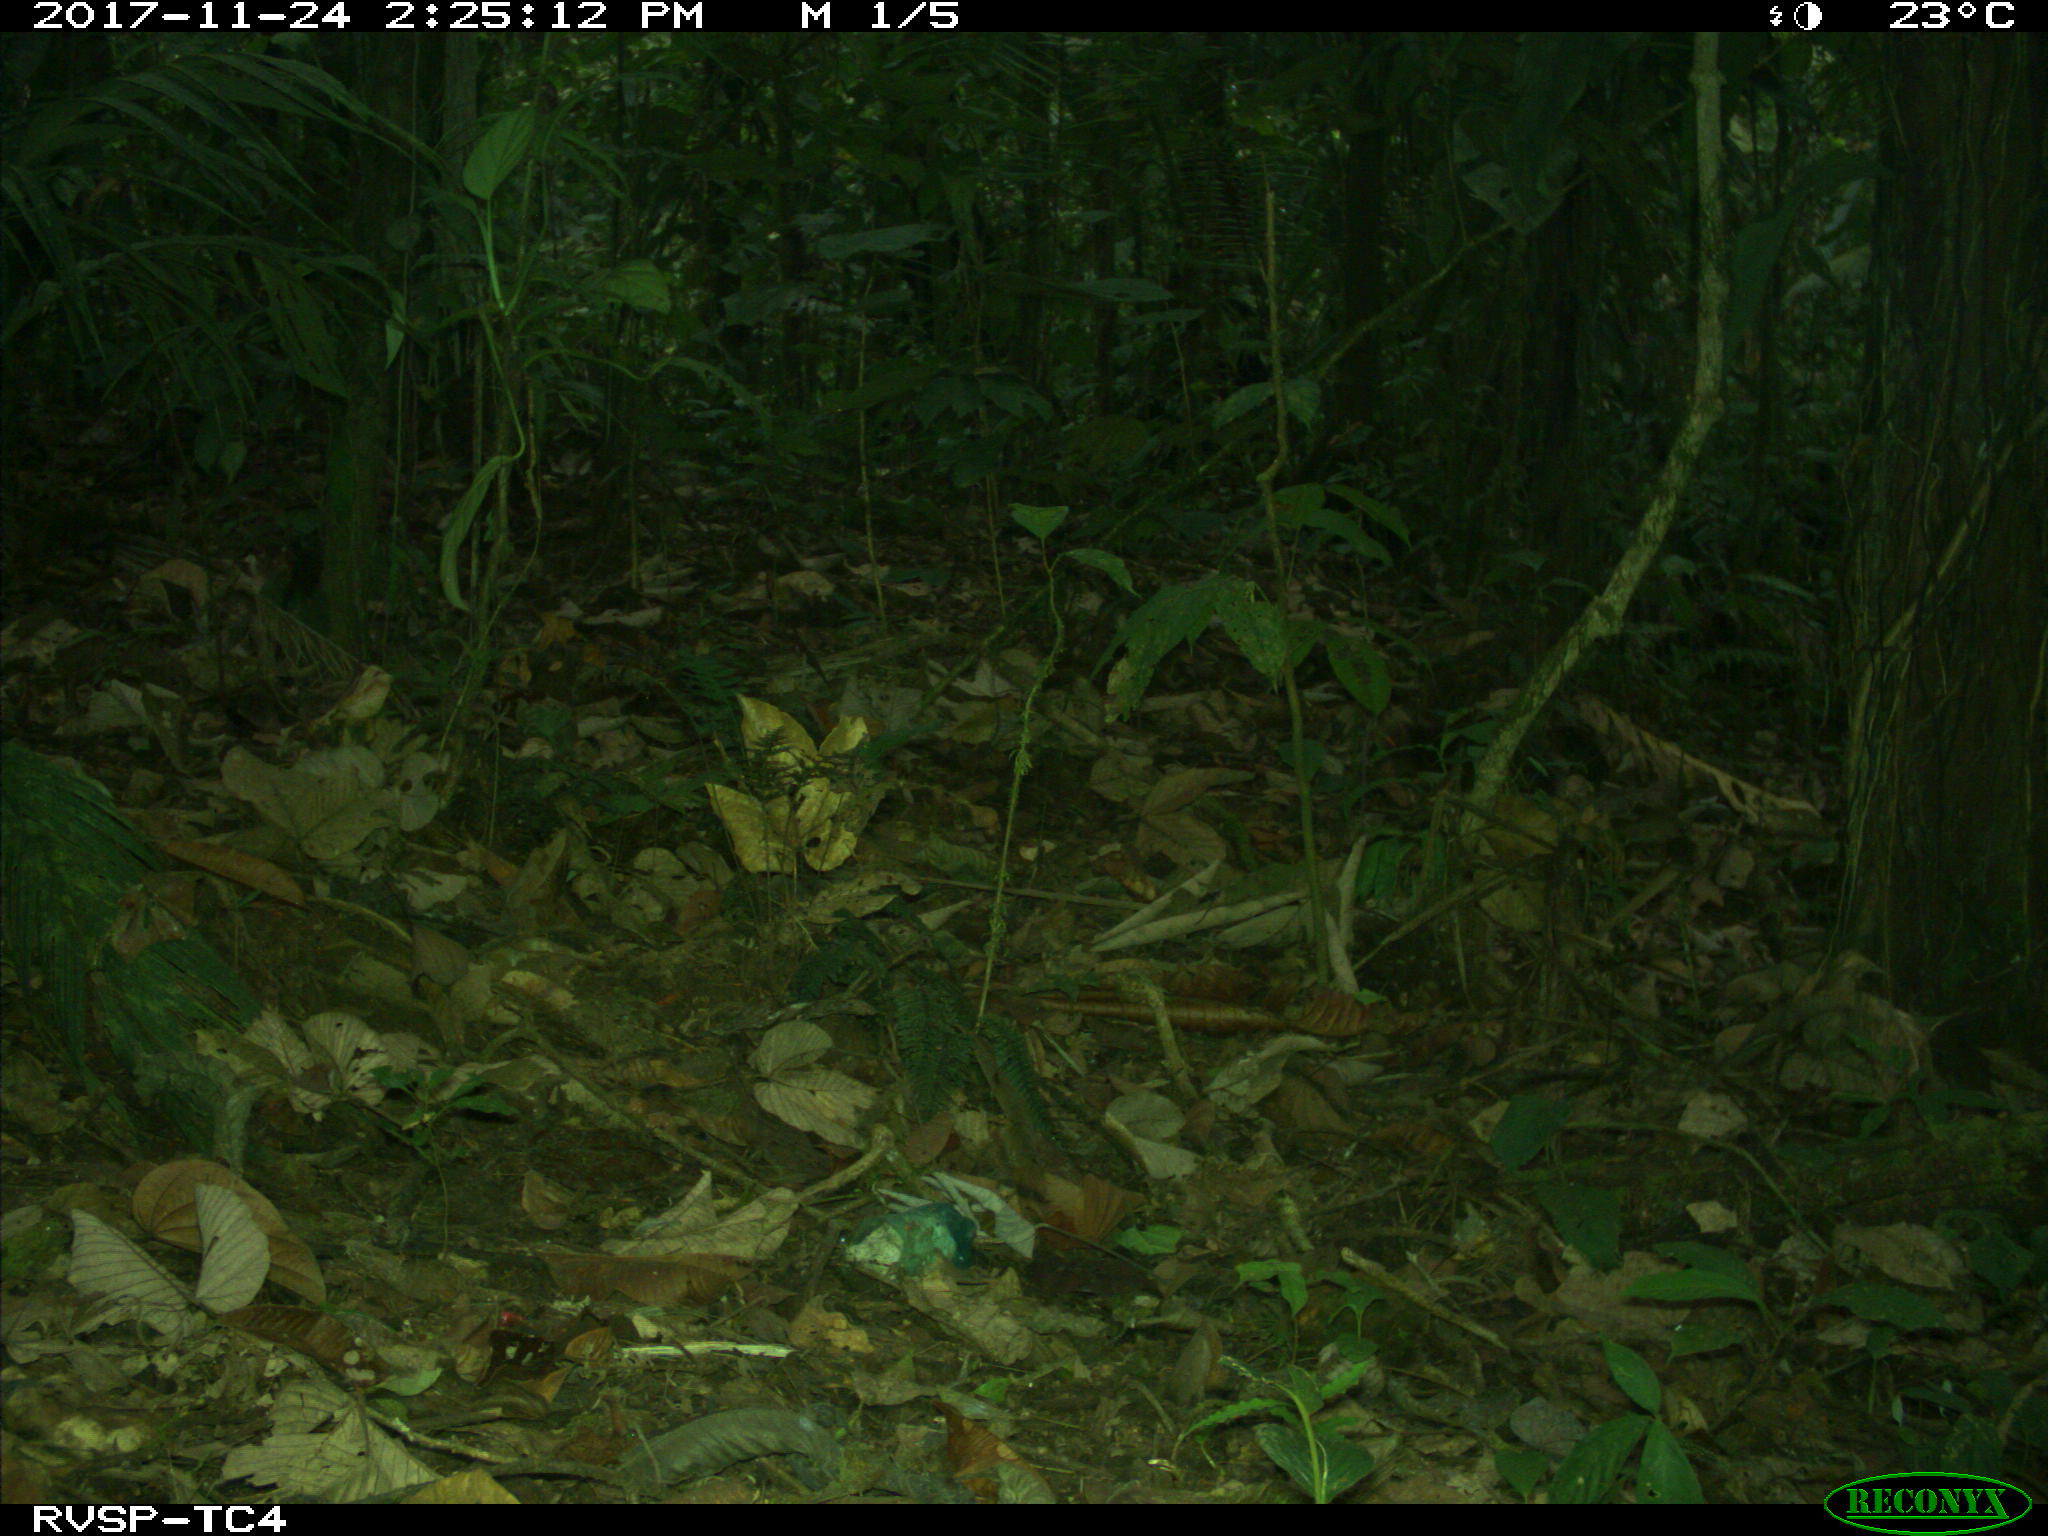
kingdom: Animalia
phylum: Chordata
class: Mammalia
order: Rodentia
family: Dasyproctidae
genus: Dasyprocta
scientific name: Dasyprocta punctata
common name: Central american agouti
